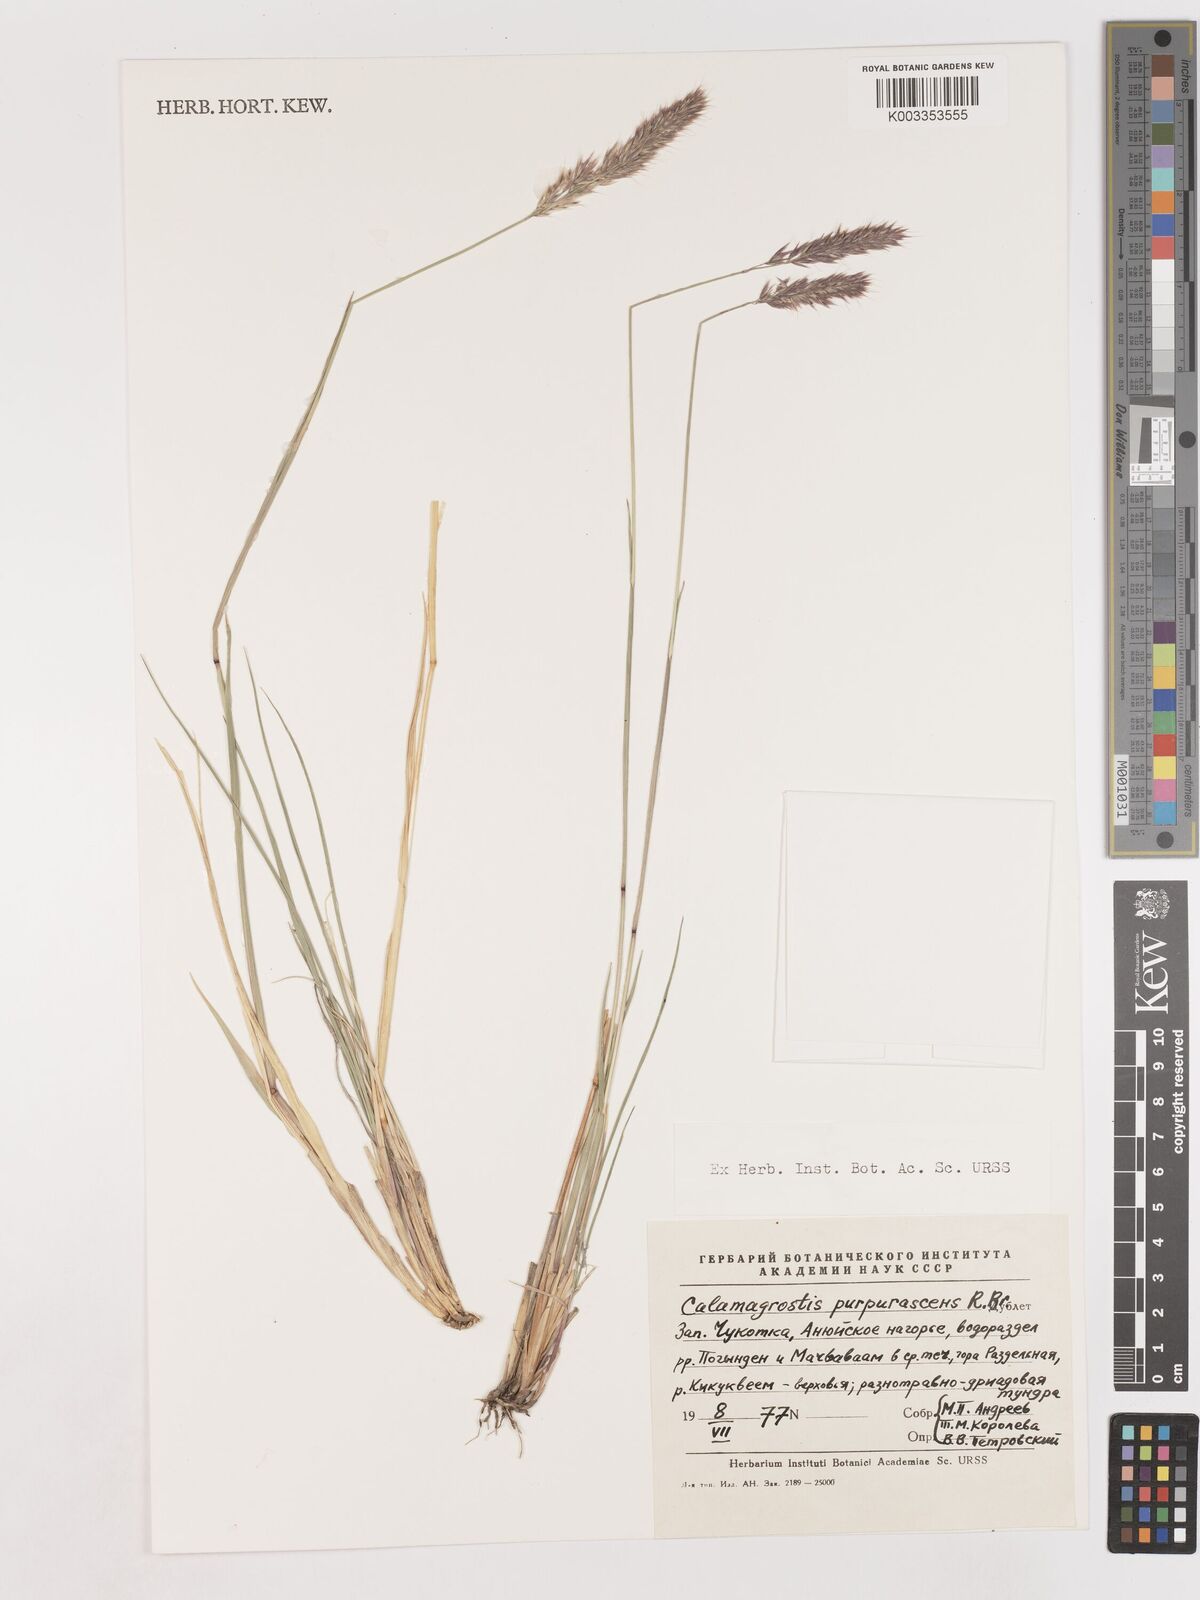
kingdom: Plantae
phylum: Tracheophyta
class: Liliopsida
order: Poales
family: Poaceae
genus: Calamagrostis
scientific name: Calamagrostis purpurascens
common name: Purple reedgrass
